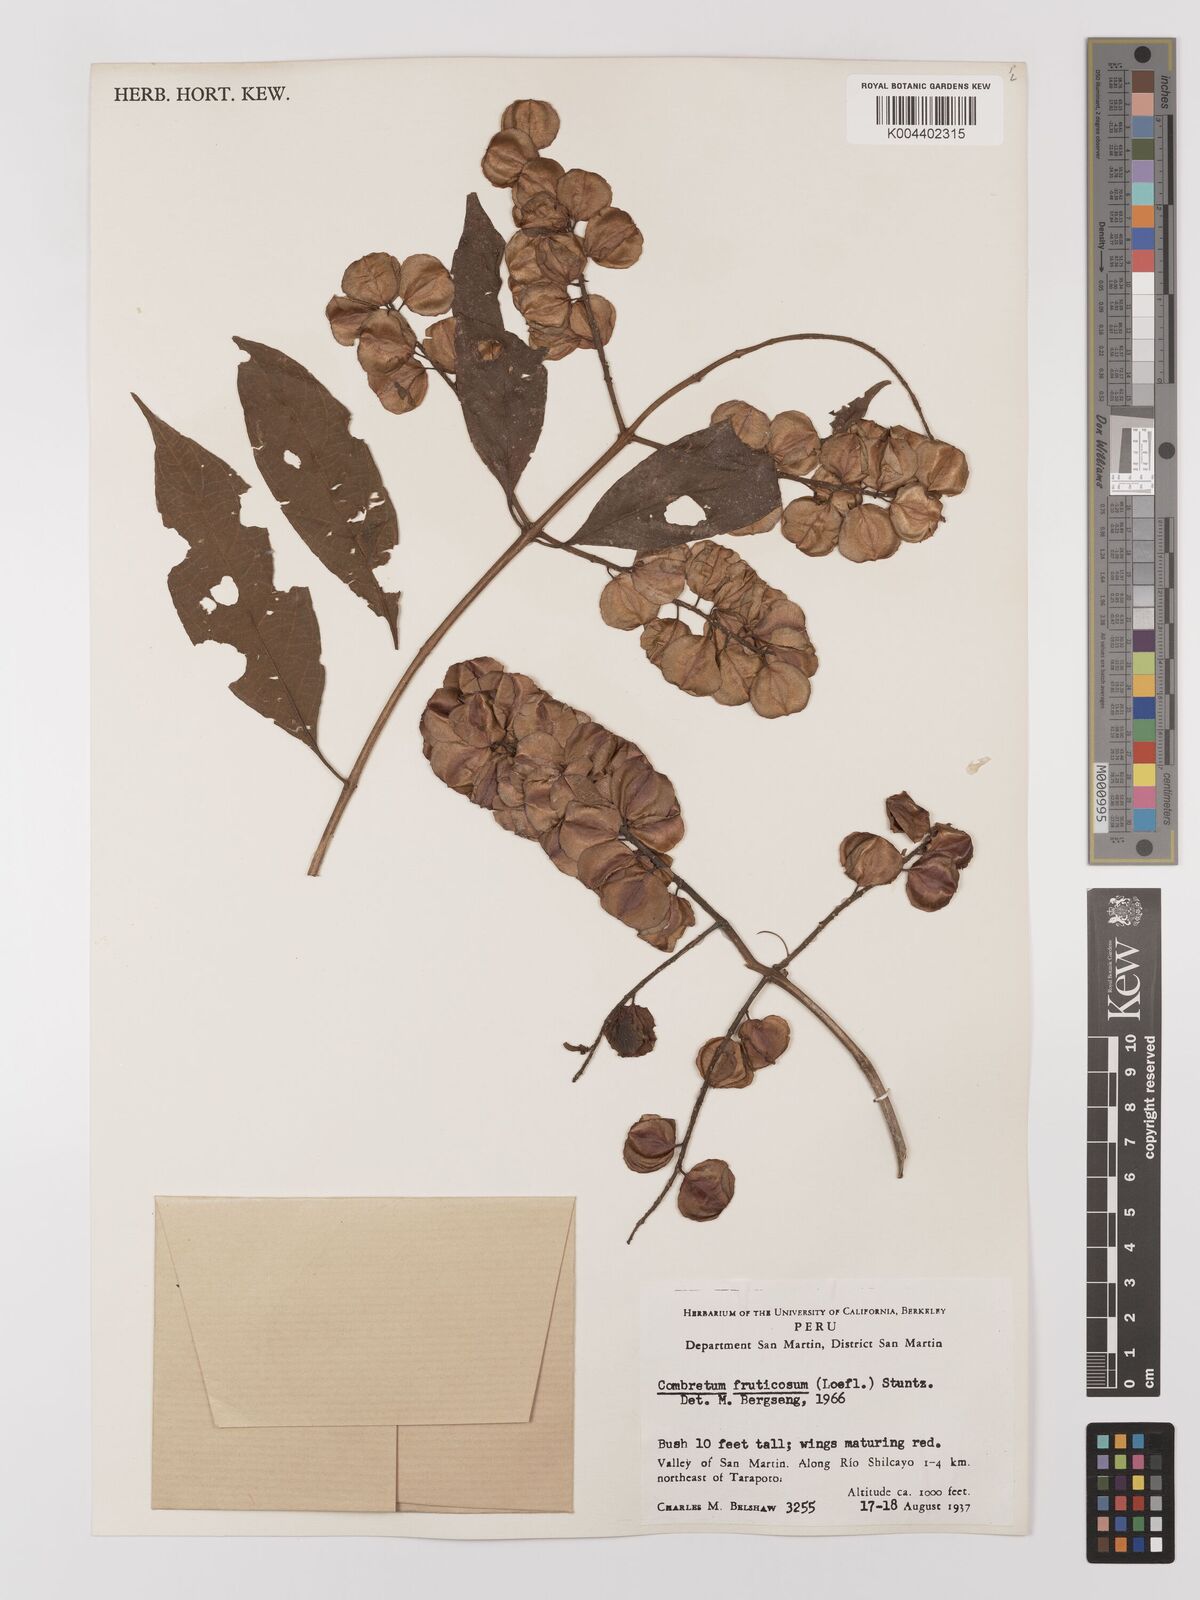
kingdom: Plantae
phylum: Tracheophyta
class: Magnoliopsida
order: Myrtales
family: Combretaceae
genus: Combretum
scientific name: Combretum fruticosum
